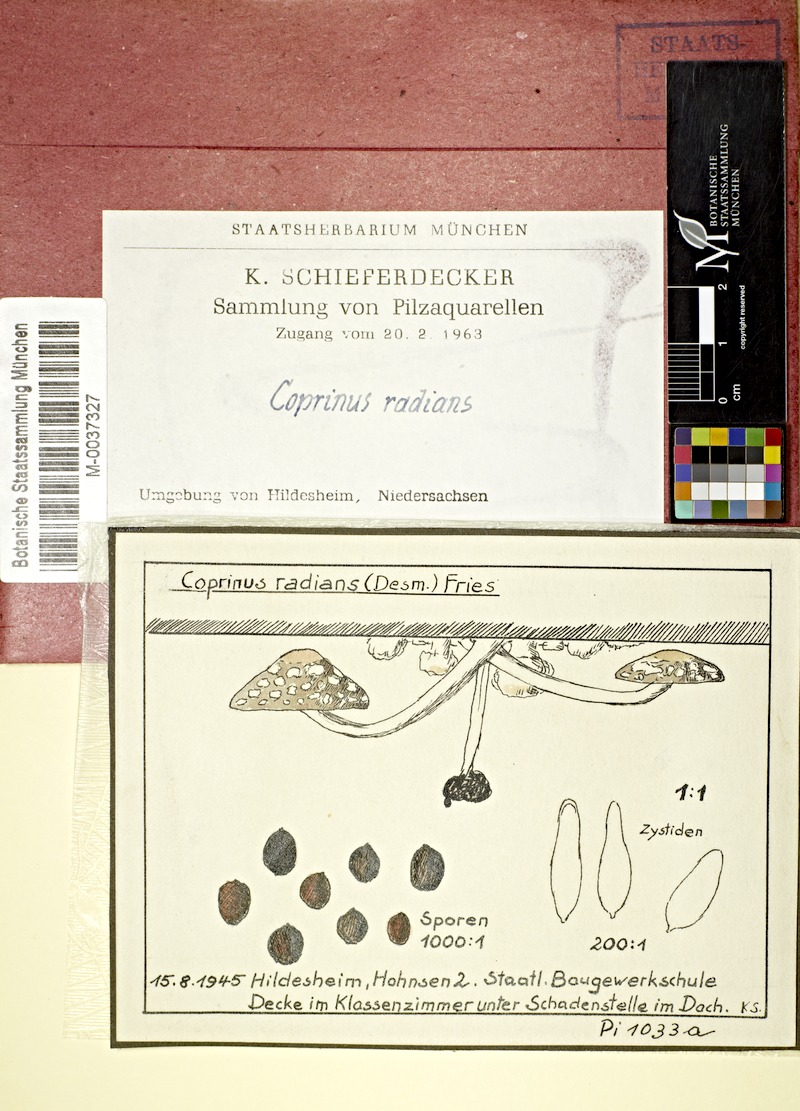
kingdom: Fungi
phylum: Basidiomycota
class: Agaricomycetes
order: Agaricales
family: Psathyrellaceae
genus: Coprinellus
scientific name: Coprinellus radians
